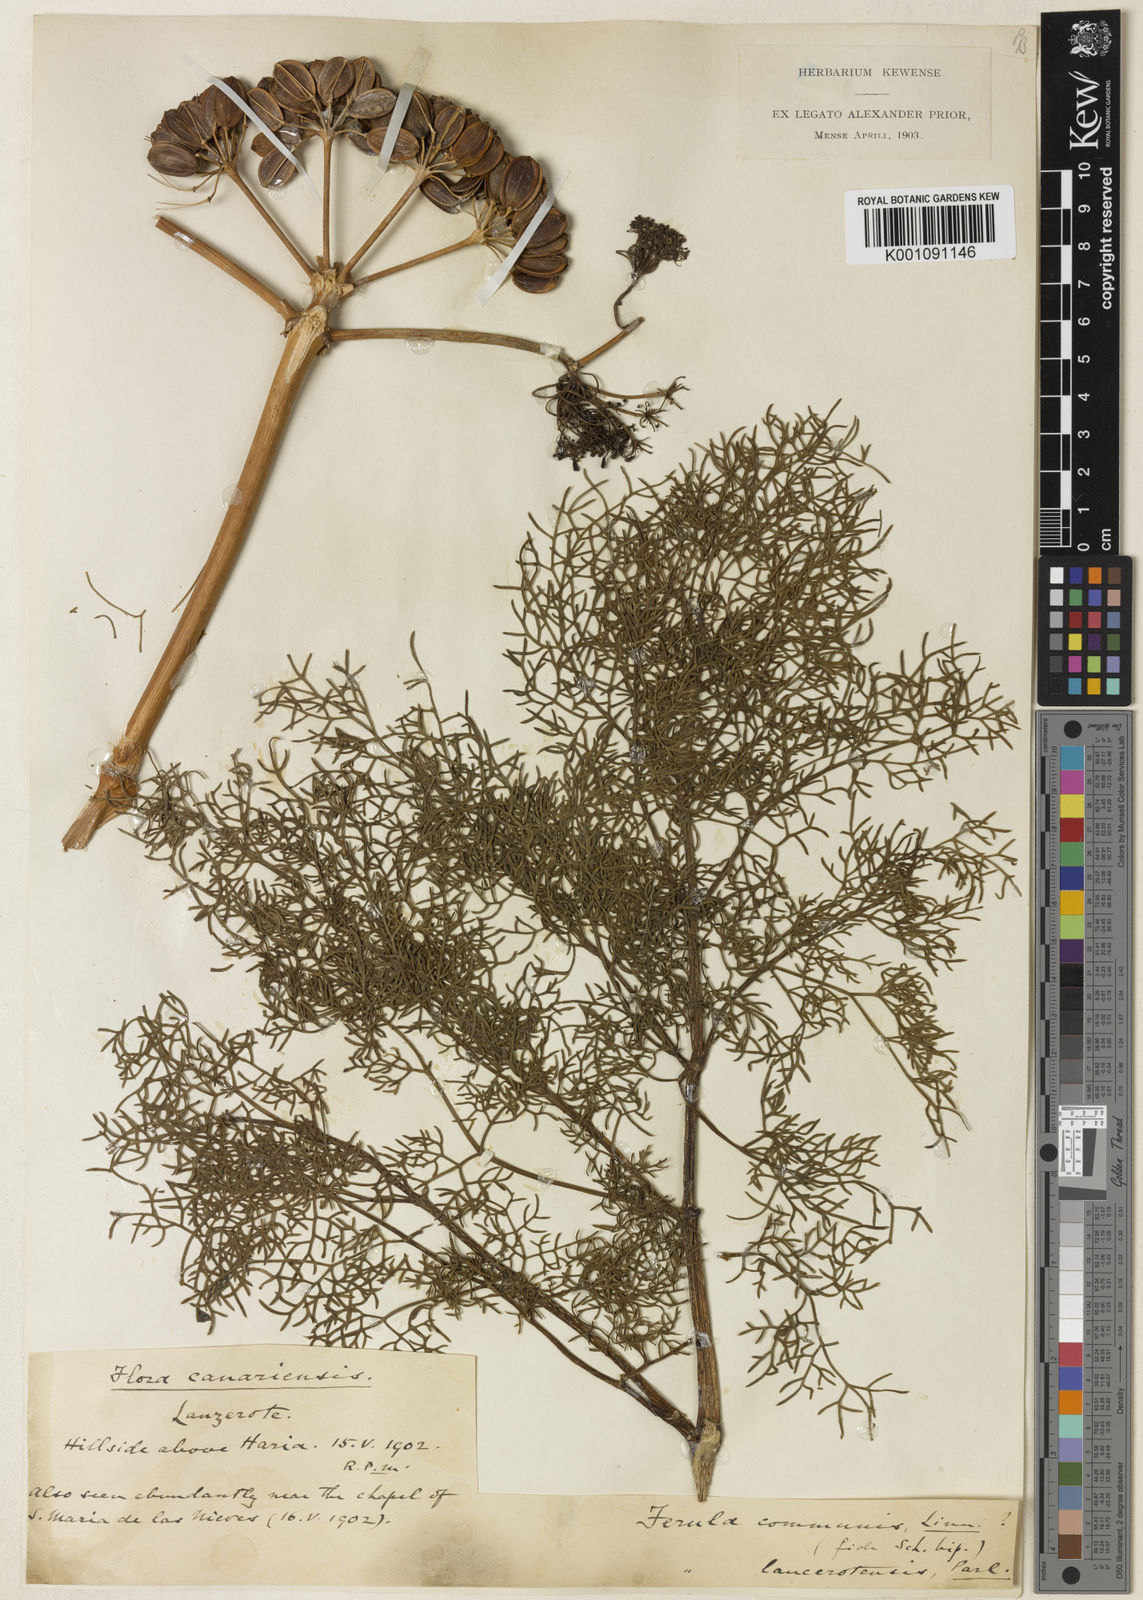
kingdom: Plantae
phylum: Tracheophyta
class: Magnoliopsida
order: Apiales
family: Apiaceae
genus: Ferula
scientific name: Ferula communis
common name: Giant fennel
